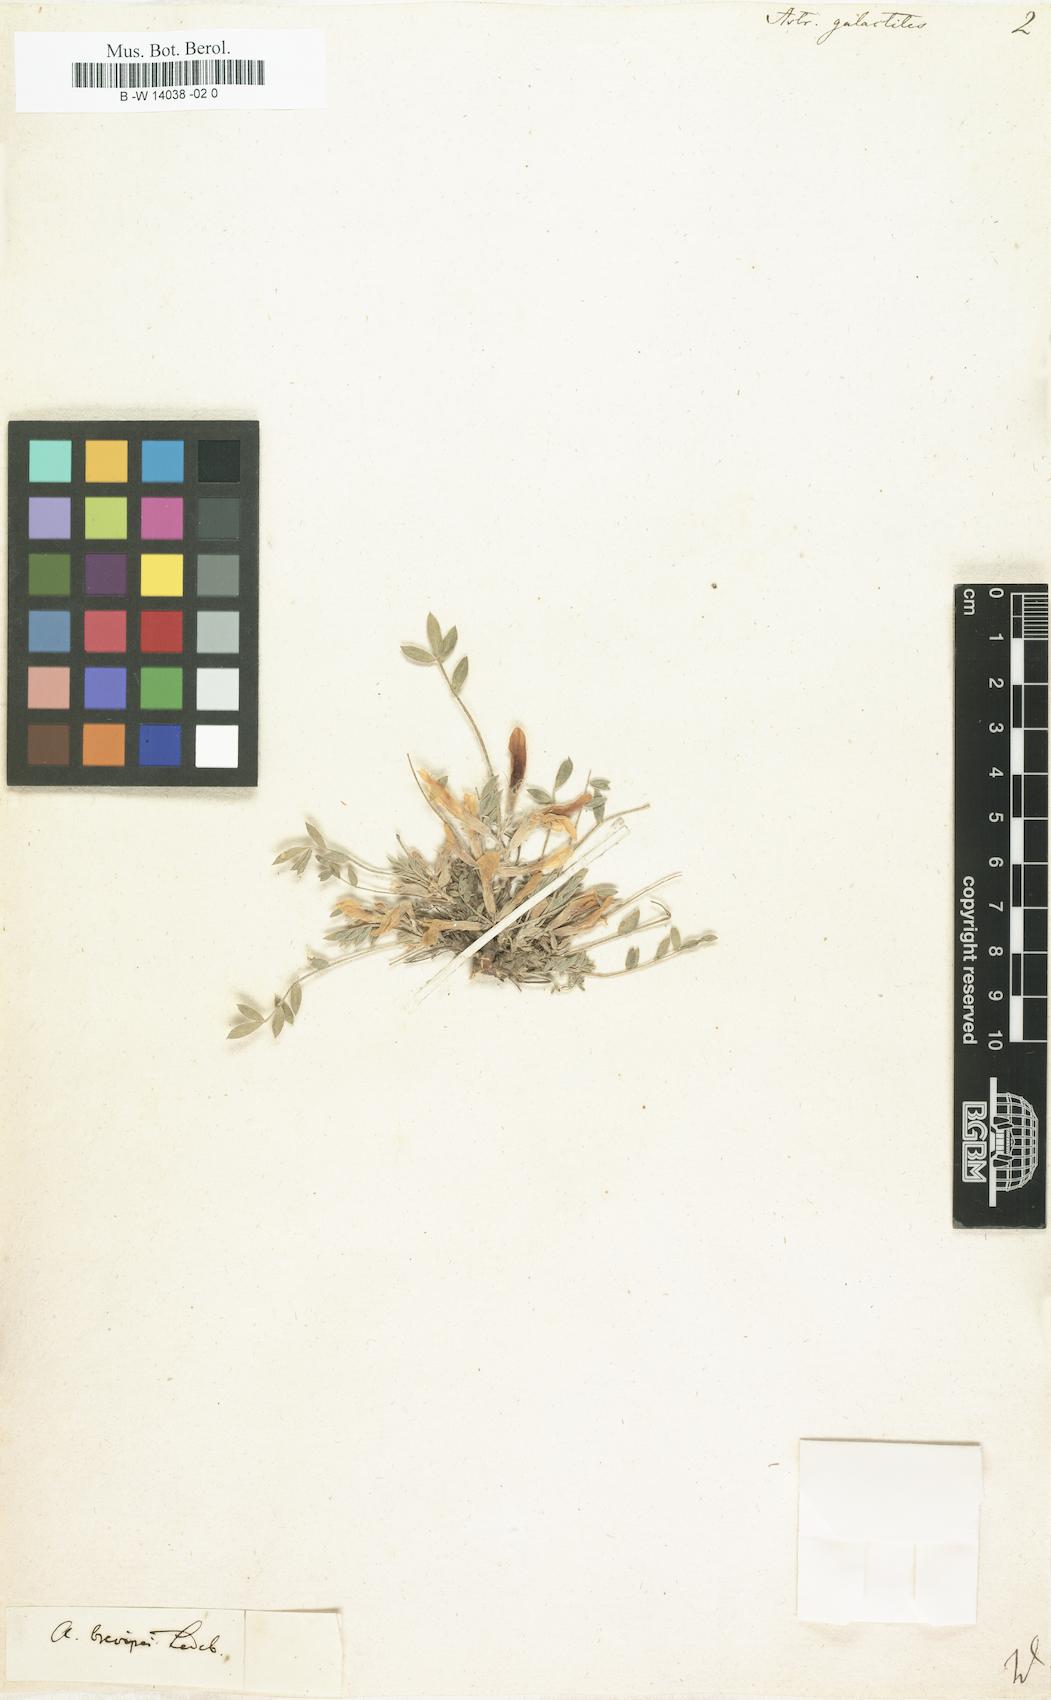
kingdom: Plantae
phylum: Tracheophyta
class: Magnoliopsida
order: Fabales
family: Fabaceae
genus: Astragalus
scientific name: Astragalus galactites
